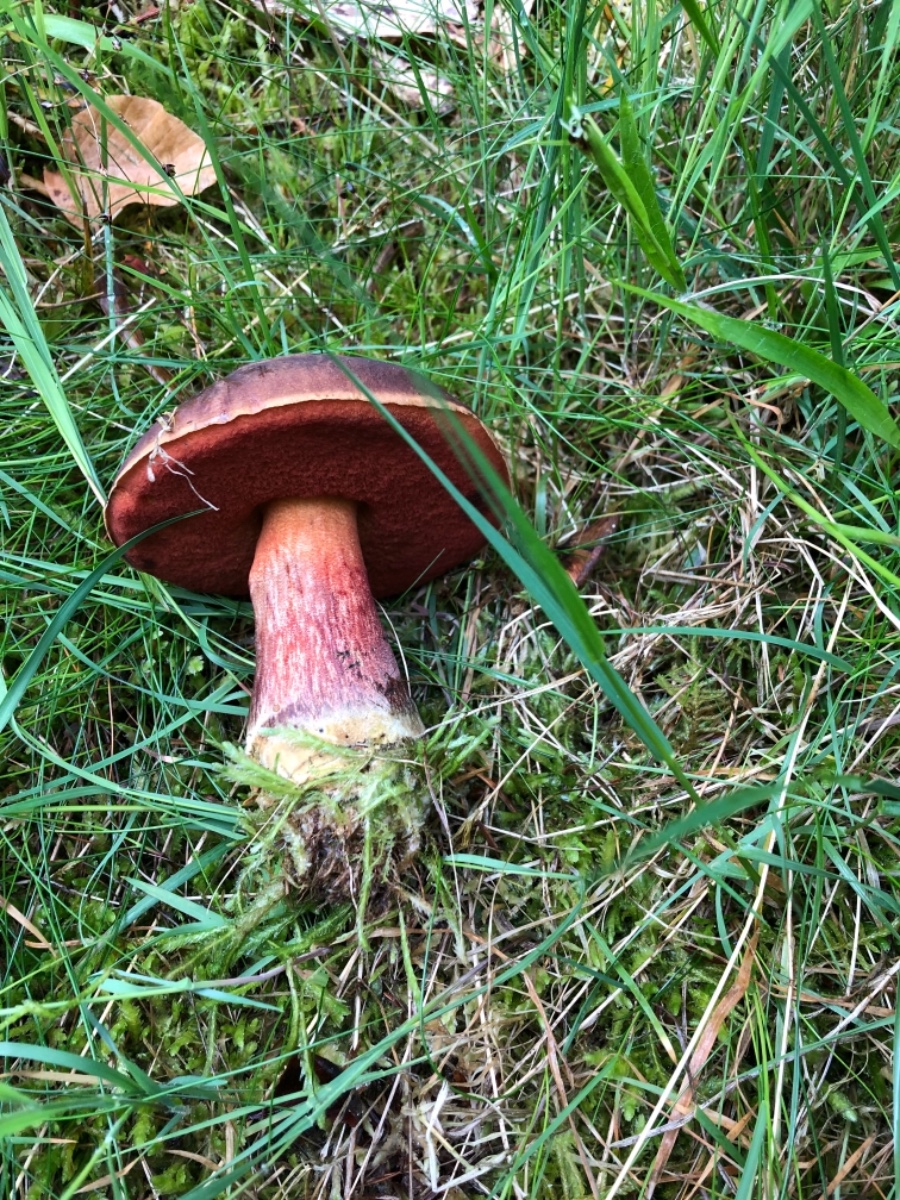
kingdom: Fungi
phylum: Basidiomycota
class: Agaricomycetes
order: Boletales
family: Boletaceae
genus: Neoboletus
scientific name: Neoboletus erythropus
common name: punktstokket indigorørhat
